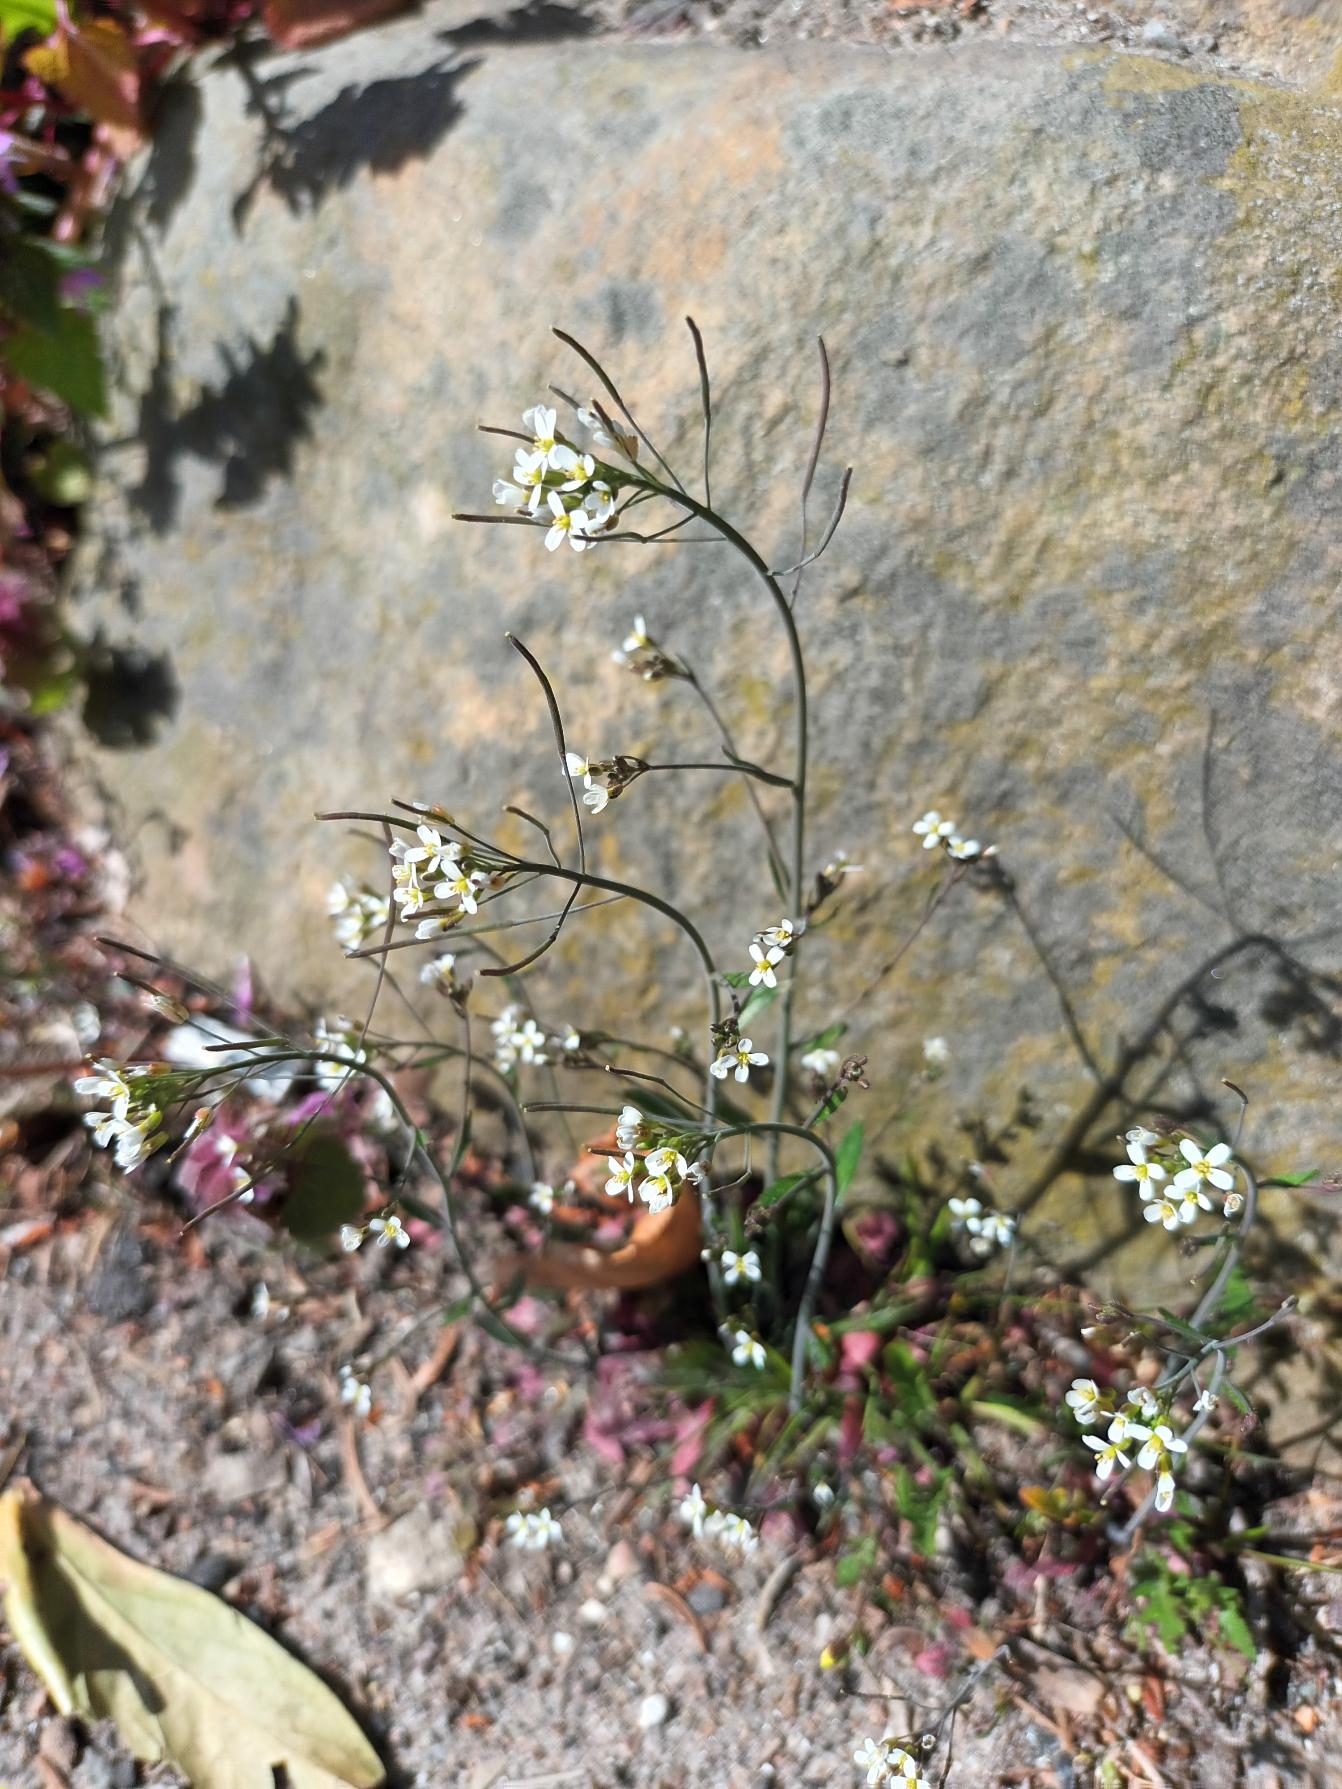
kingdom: Plantae
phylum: Tracheophyta
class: Magnoliopsida
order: Brassicales
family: Brassicaceae
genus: Arabidopsis
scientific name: Arabidopsis thaliana
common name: Almindelig gåsemad
